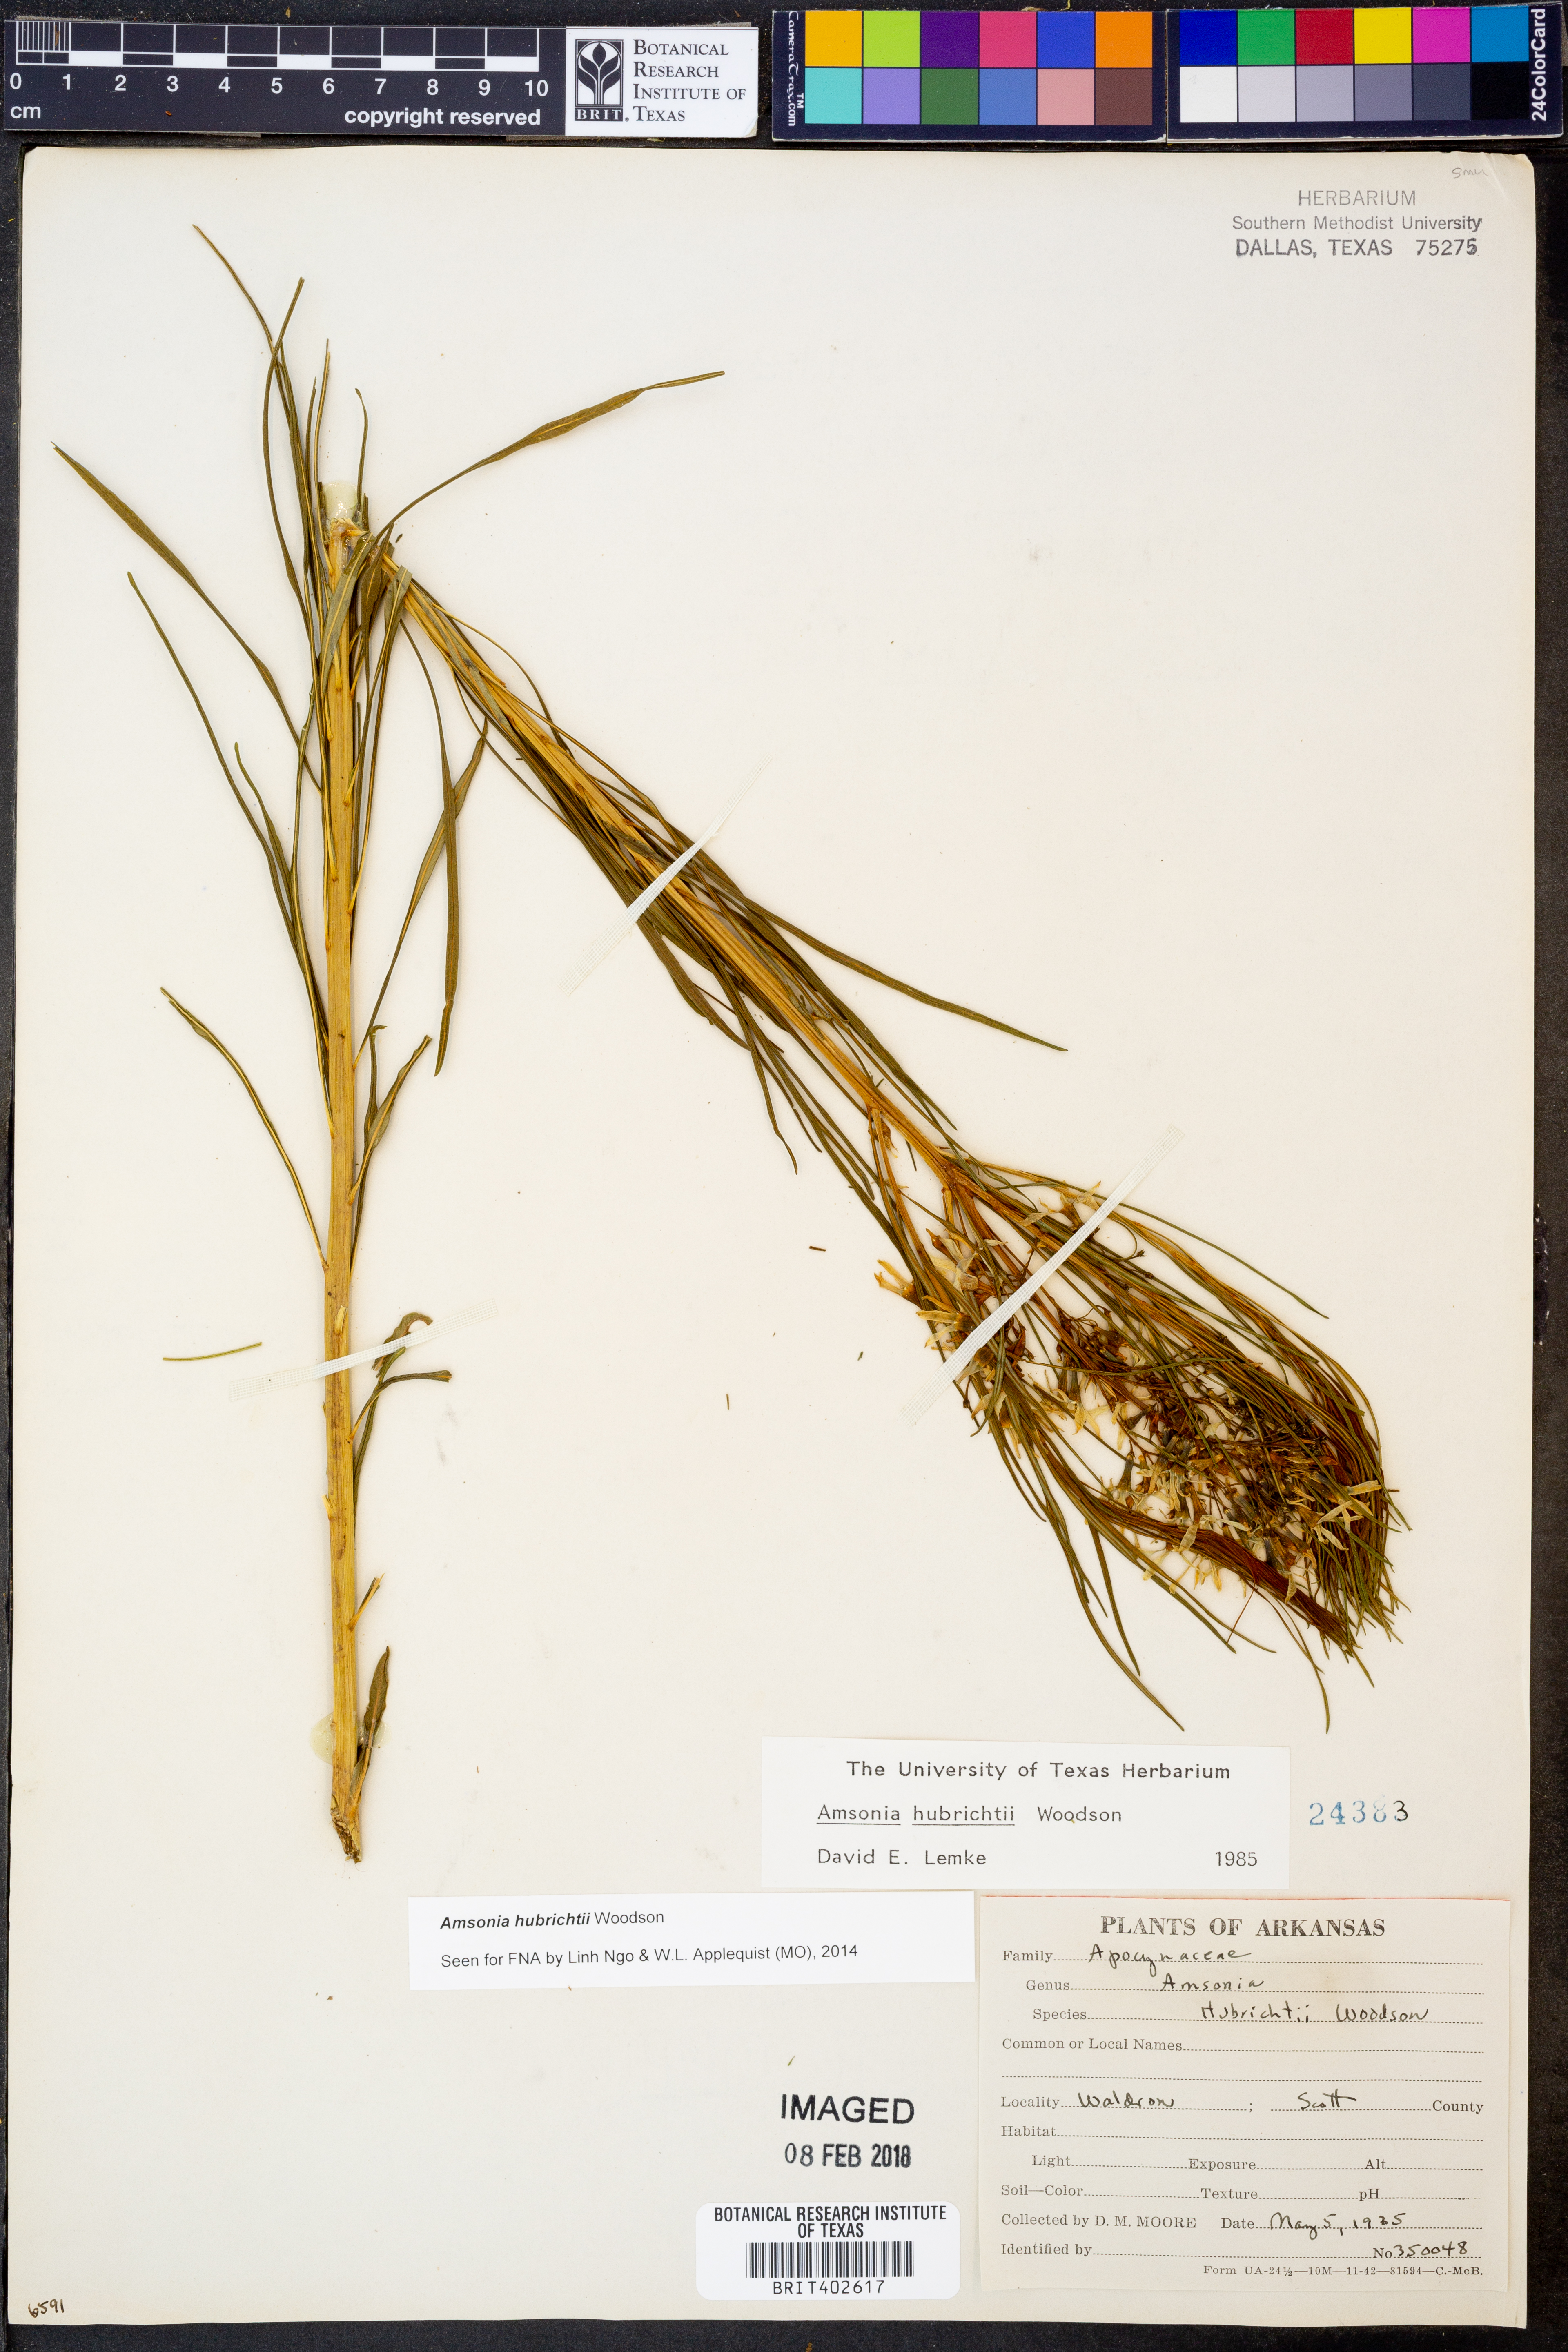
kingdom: Plantae
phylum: Tracheophyta
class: Magnoliopsida
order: Gentianales
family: Apocynaceae
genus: Amsonia
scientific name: Amsonia hubrichtii
